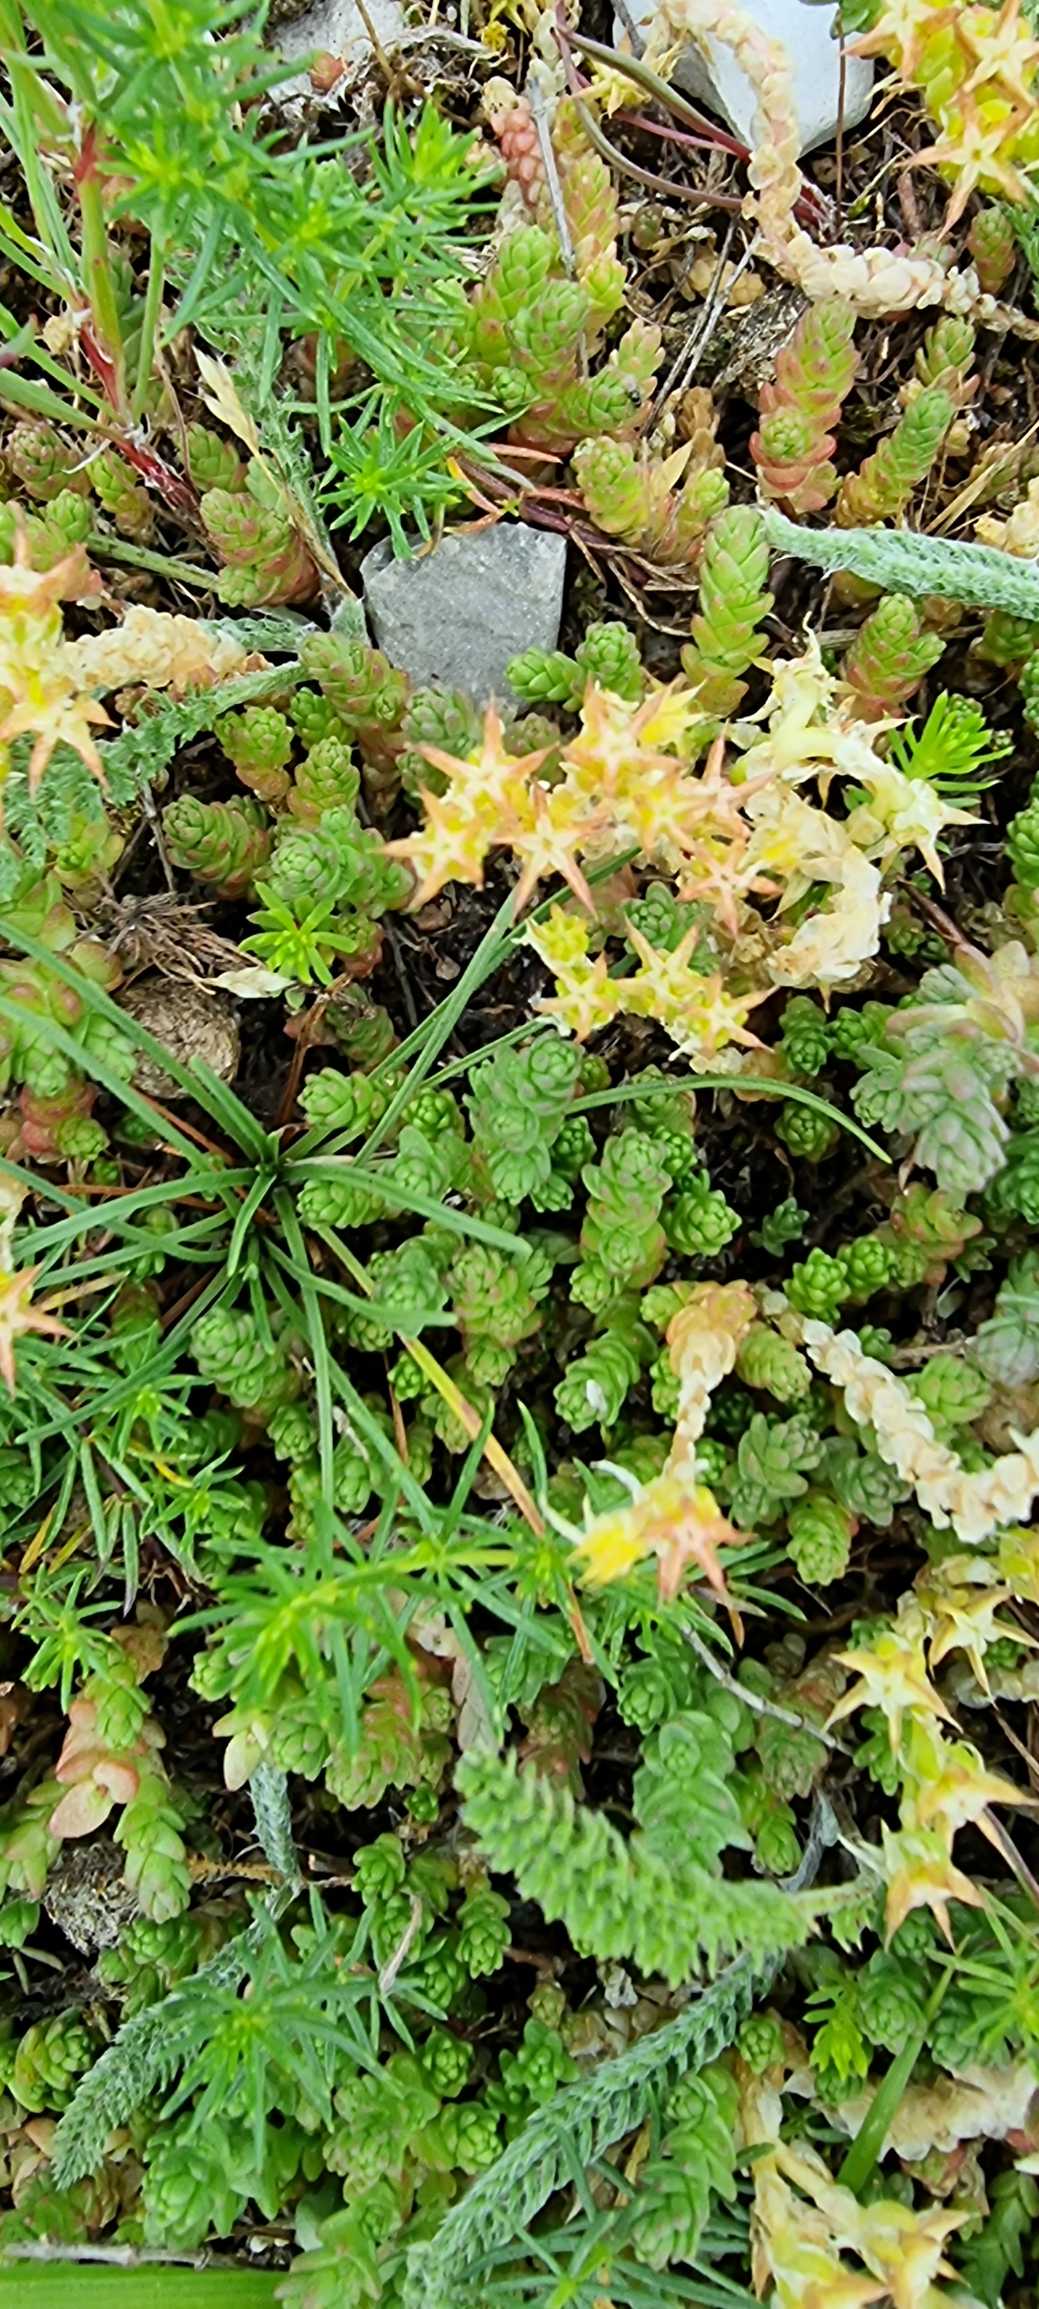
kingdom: Plantae
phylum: Tracheophyta
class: Magnoliopsida
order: Saxifragales
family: Crassulaceae
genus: Sedum
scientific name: Sedum acre
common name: Bidende stenurt
